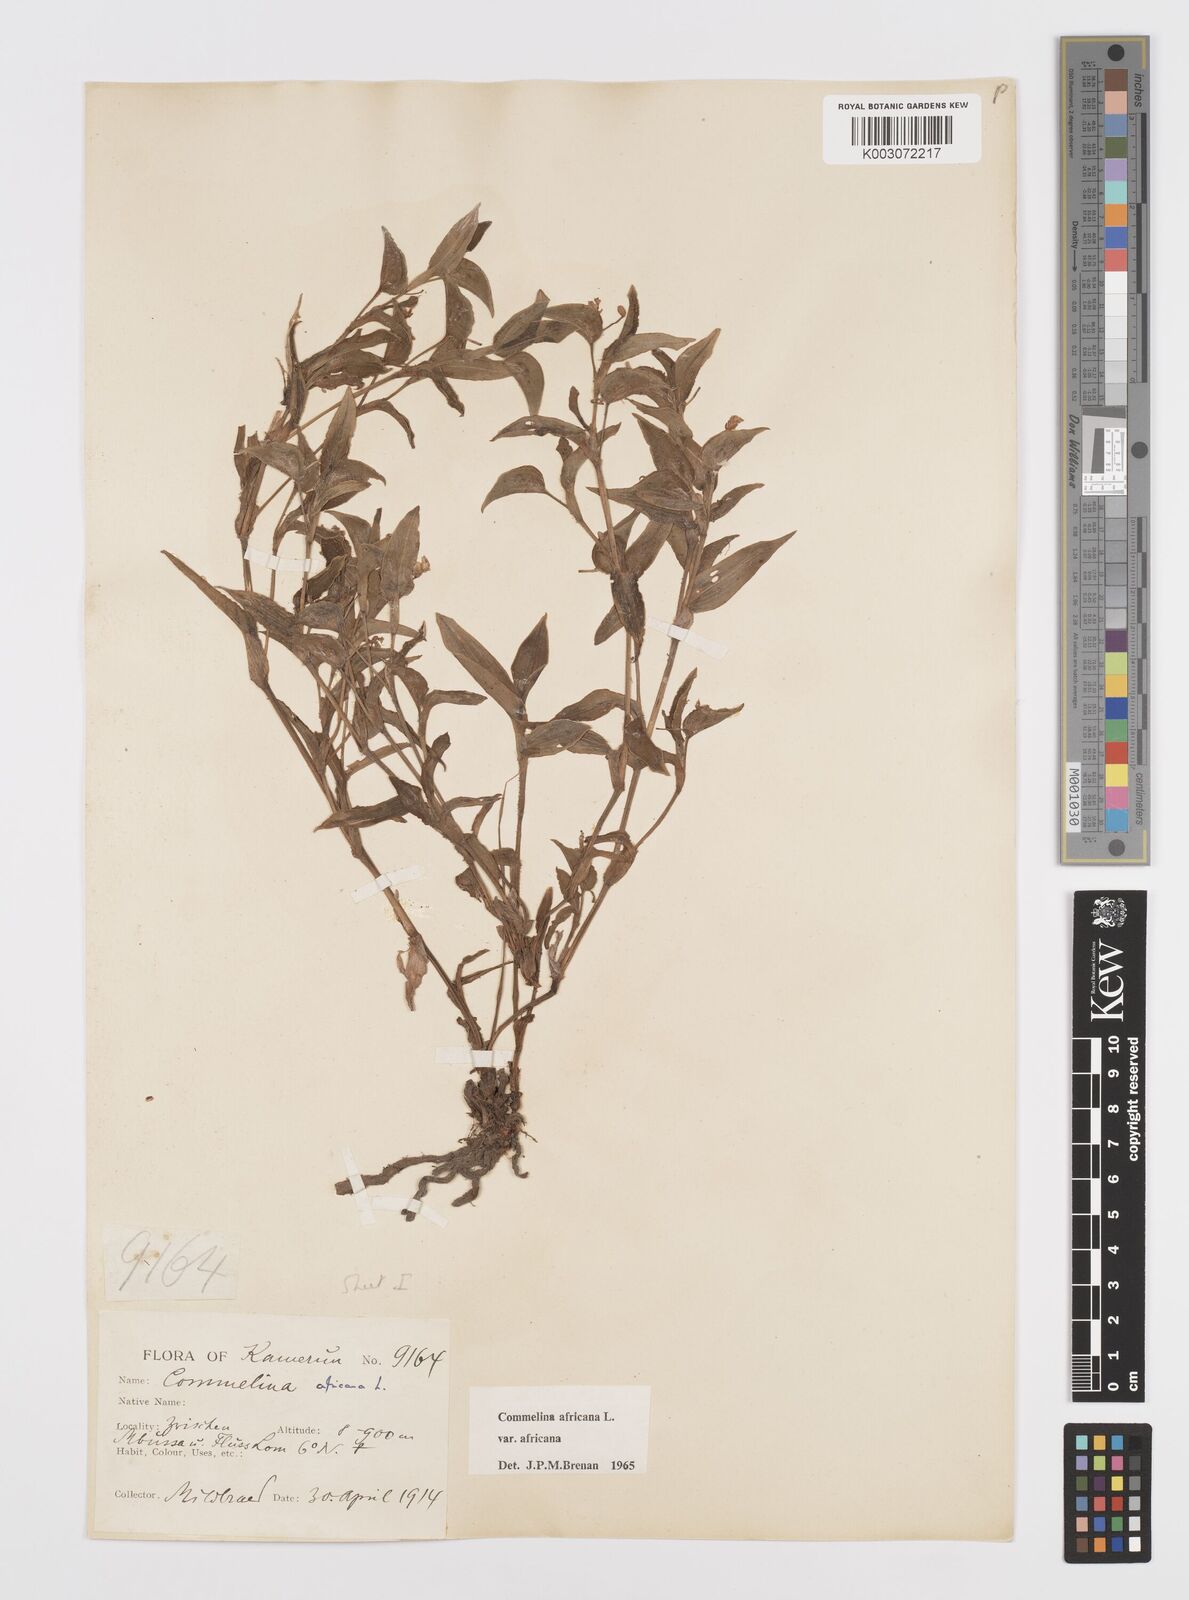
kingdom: Plantae
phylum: Tracheophyta
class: Liliopsida
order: Commelinales
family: Commelinaceae
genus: Commelina
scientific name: Commelina africana
